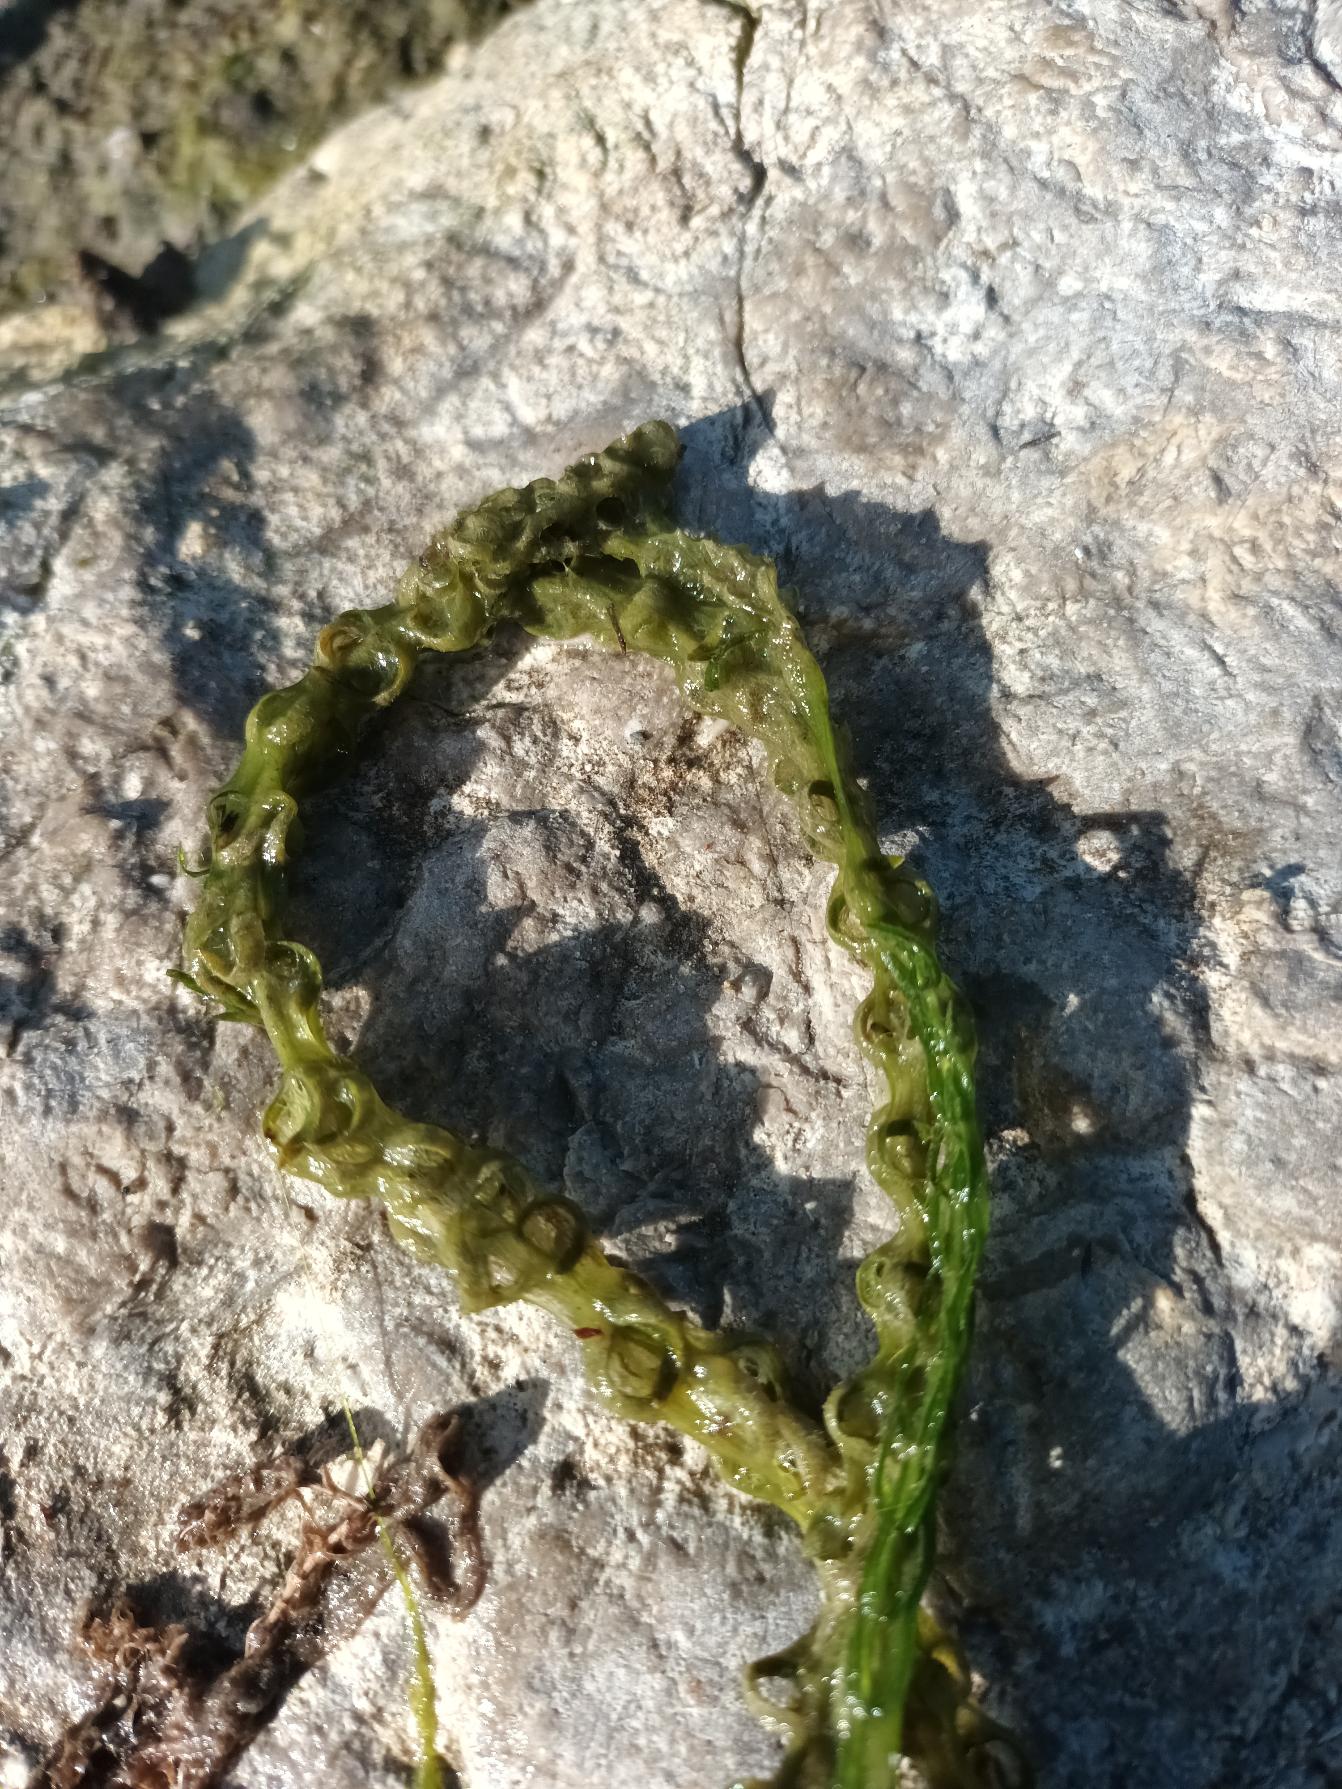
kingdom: Plantae
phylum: Tracheophyta
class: Liliopsida
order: Alismatales
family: Hydrocharitaceae
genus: Elodea
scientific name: Elodea nuttallii
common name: Smalbladet vandpest
